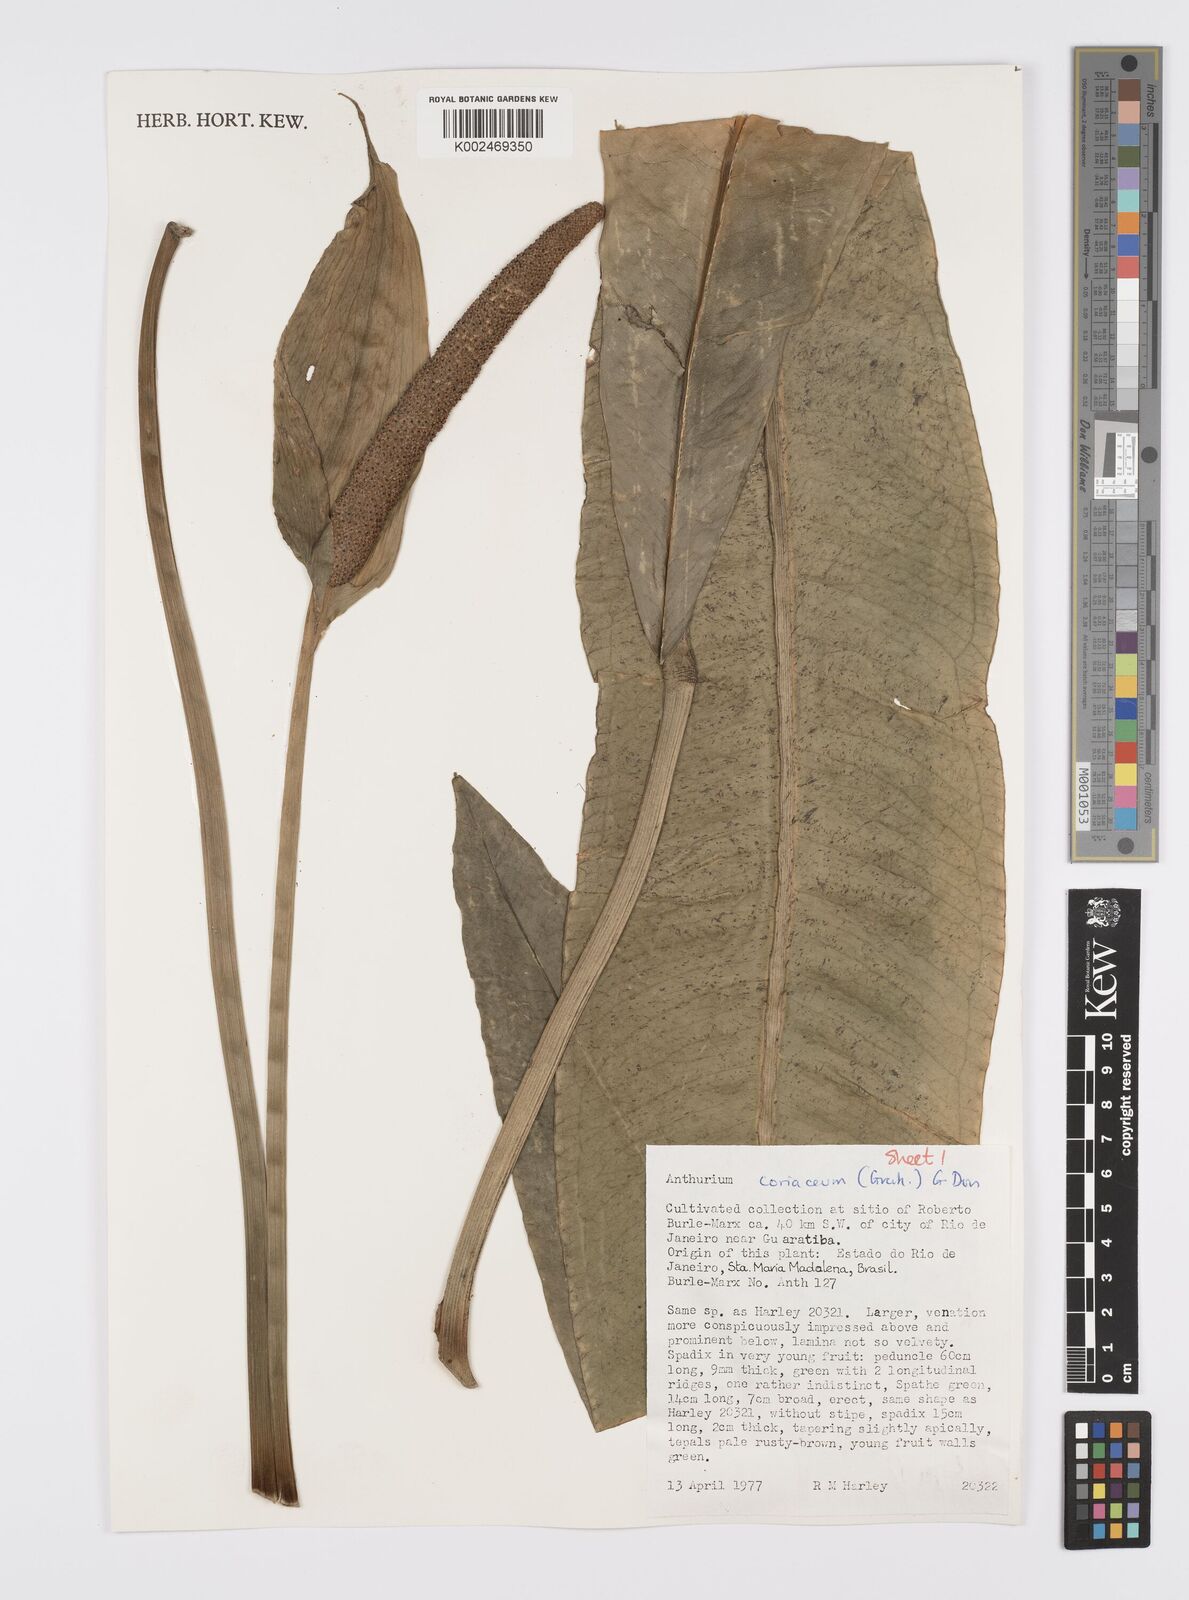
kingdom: Plantae
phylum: Tracheophyta
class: Liliopsida
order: Alismatales
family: Araceae
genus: Anthurium
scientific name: Anthurium coriaceum
